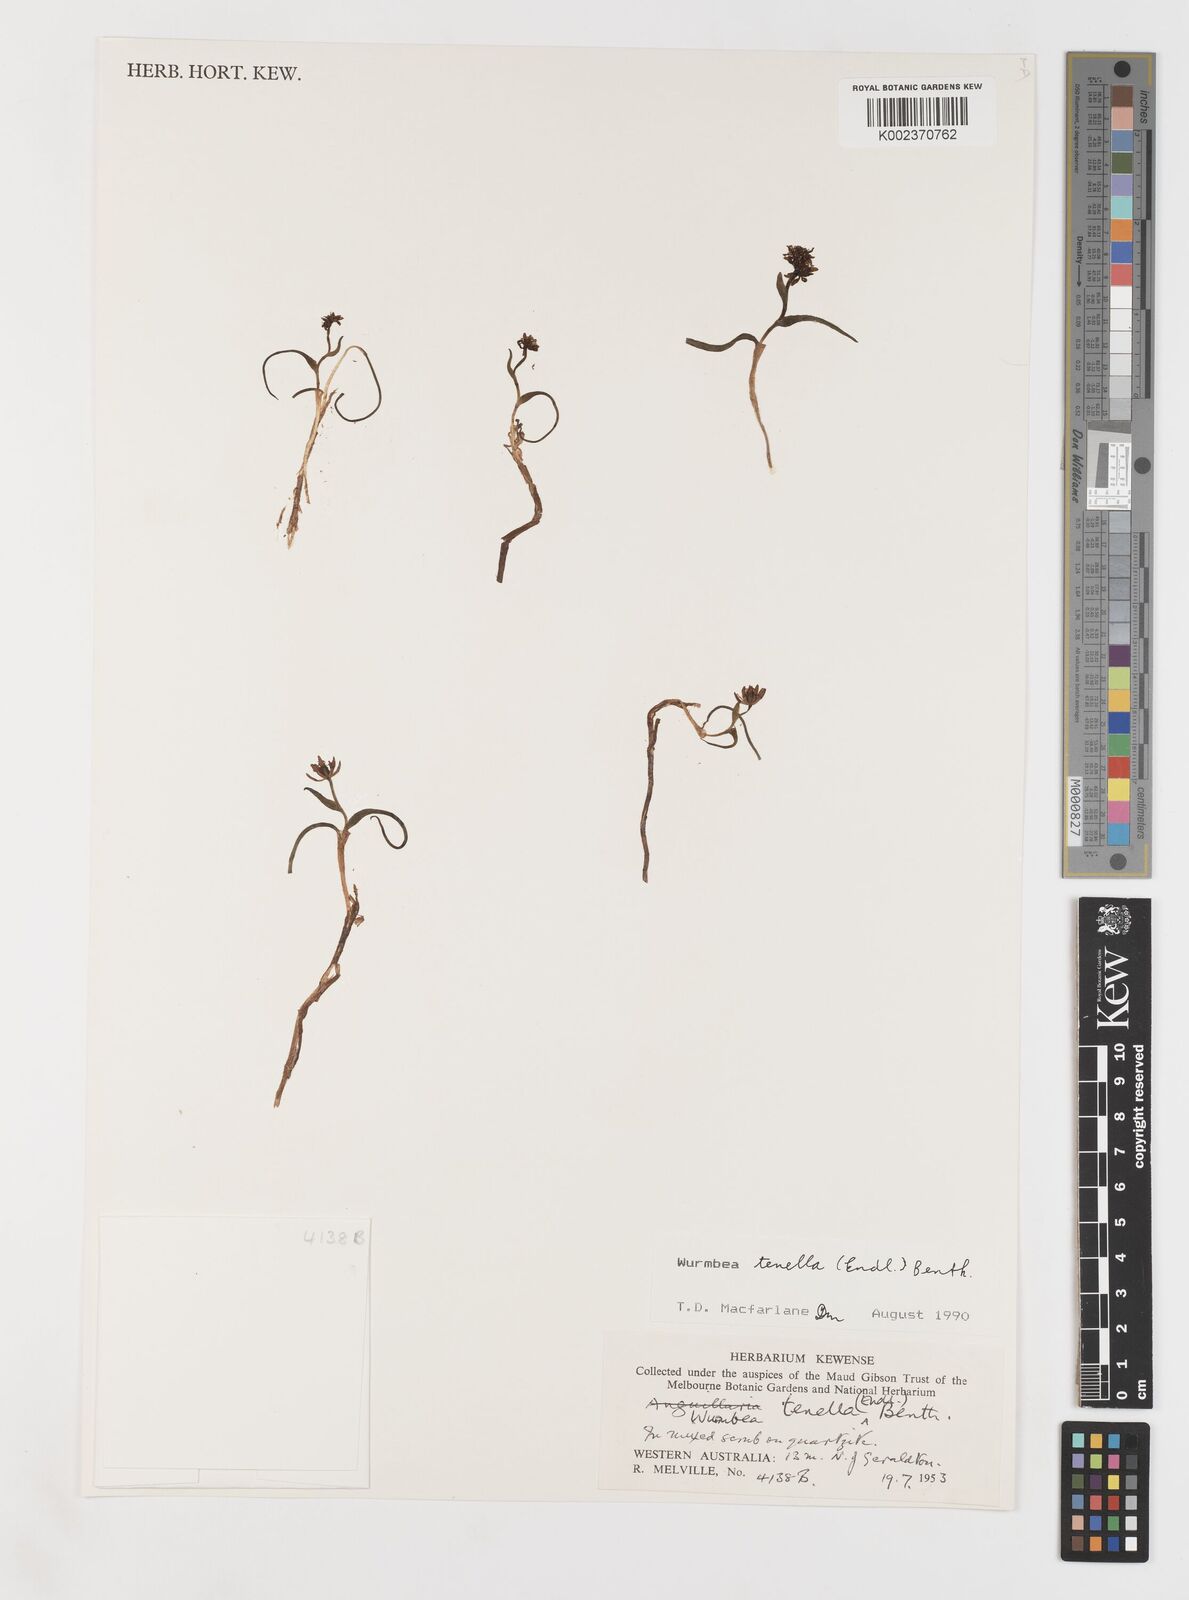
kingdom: Plantae
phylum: Tracheophyta
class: Liliopsida
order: Liliales
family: Colchicaceae
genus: Wurmbea
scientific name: Wurmbea tenella
